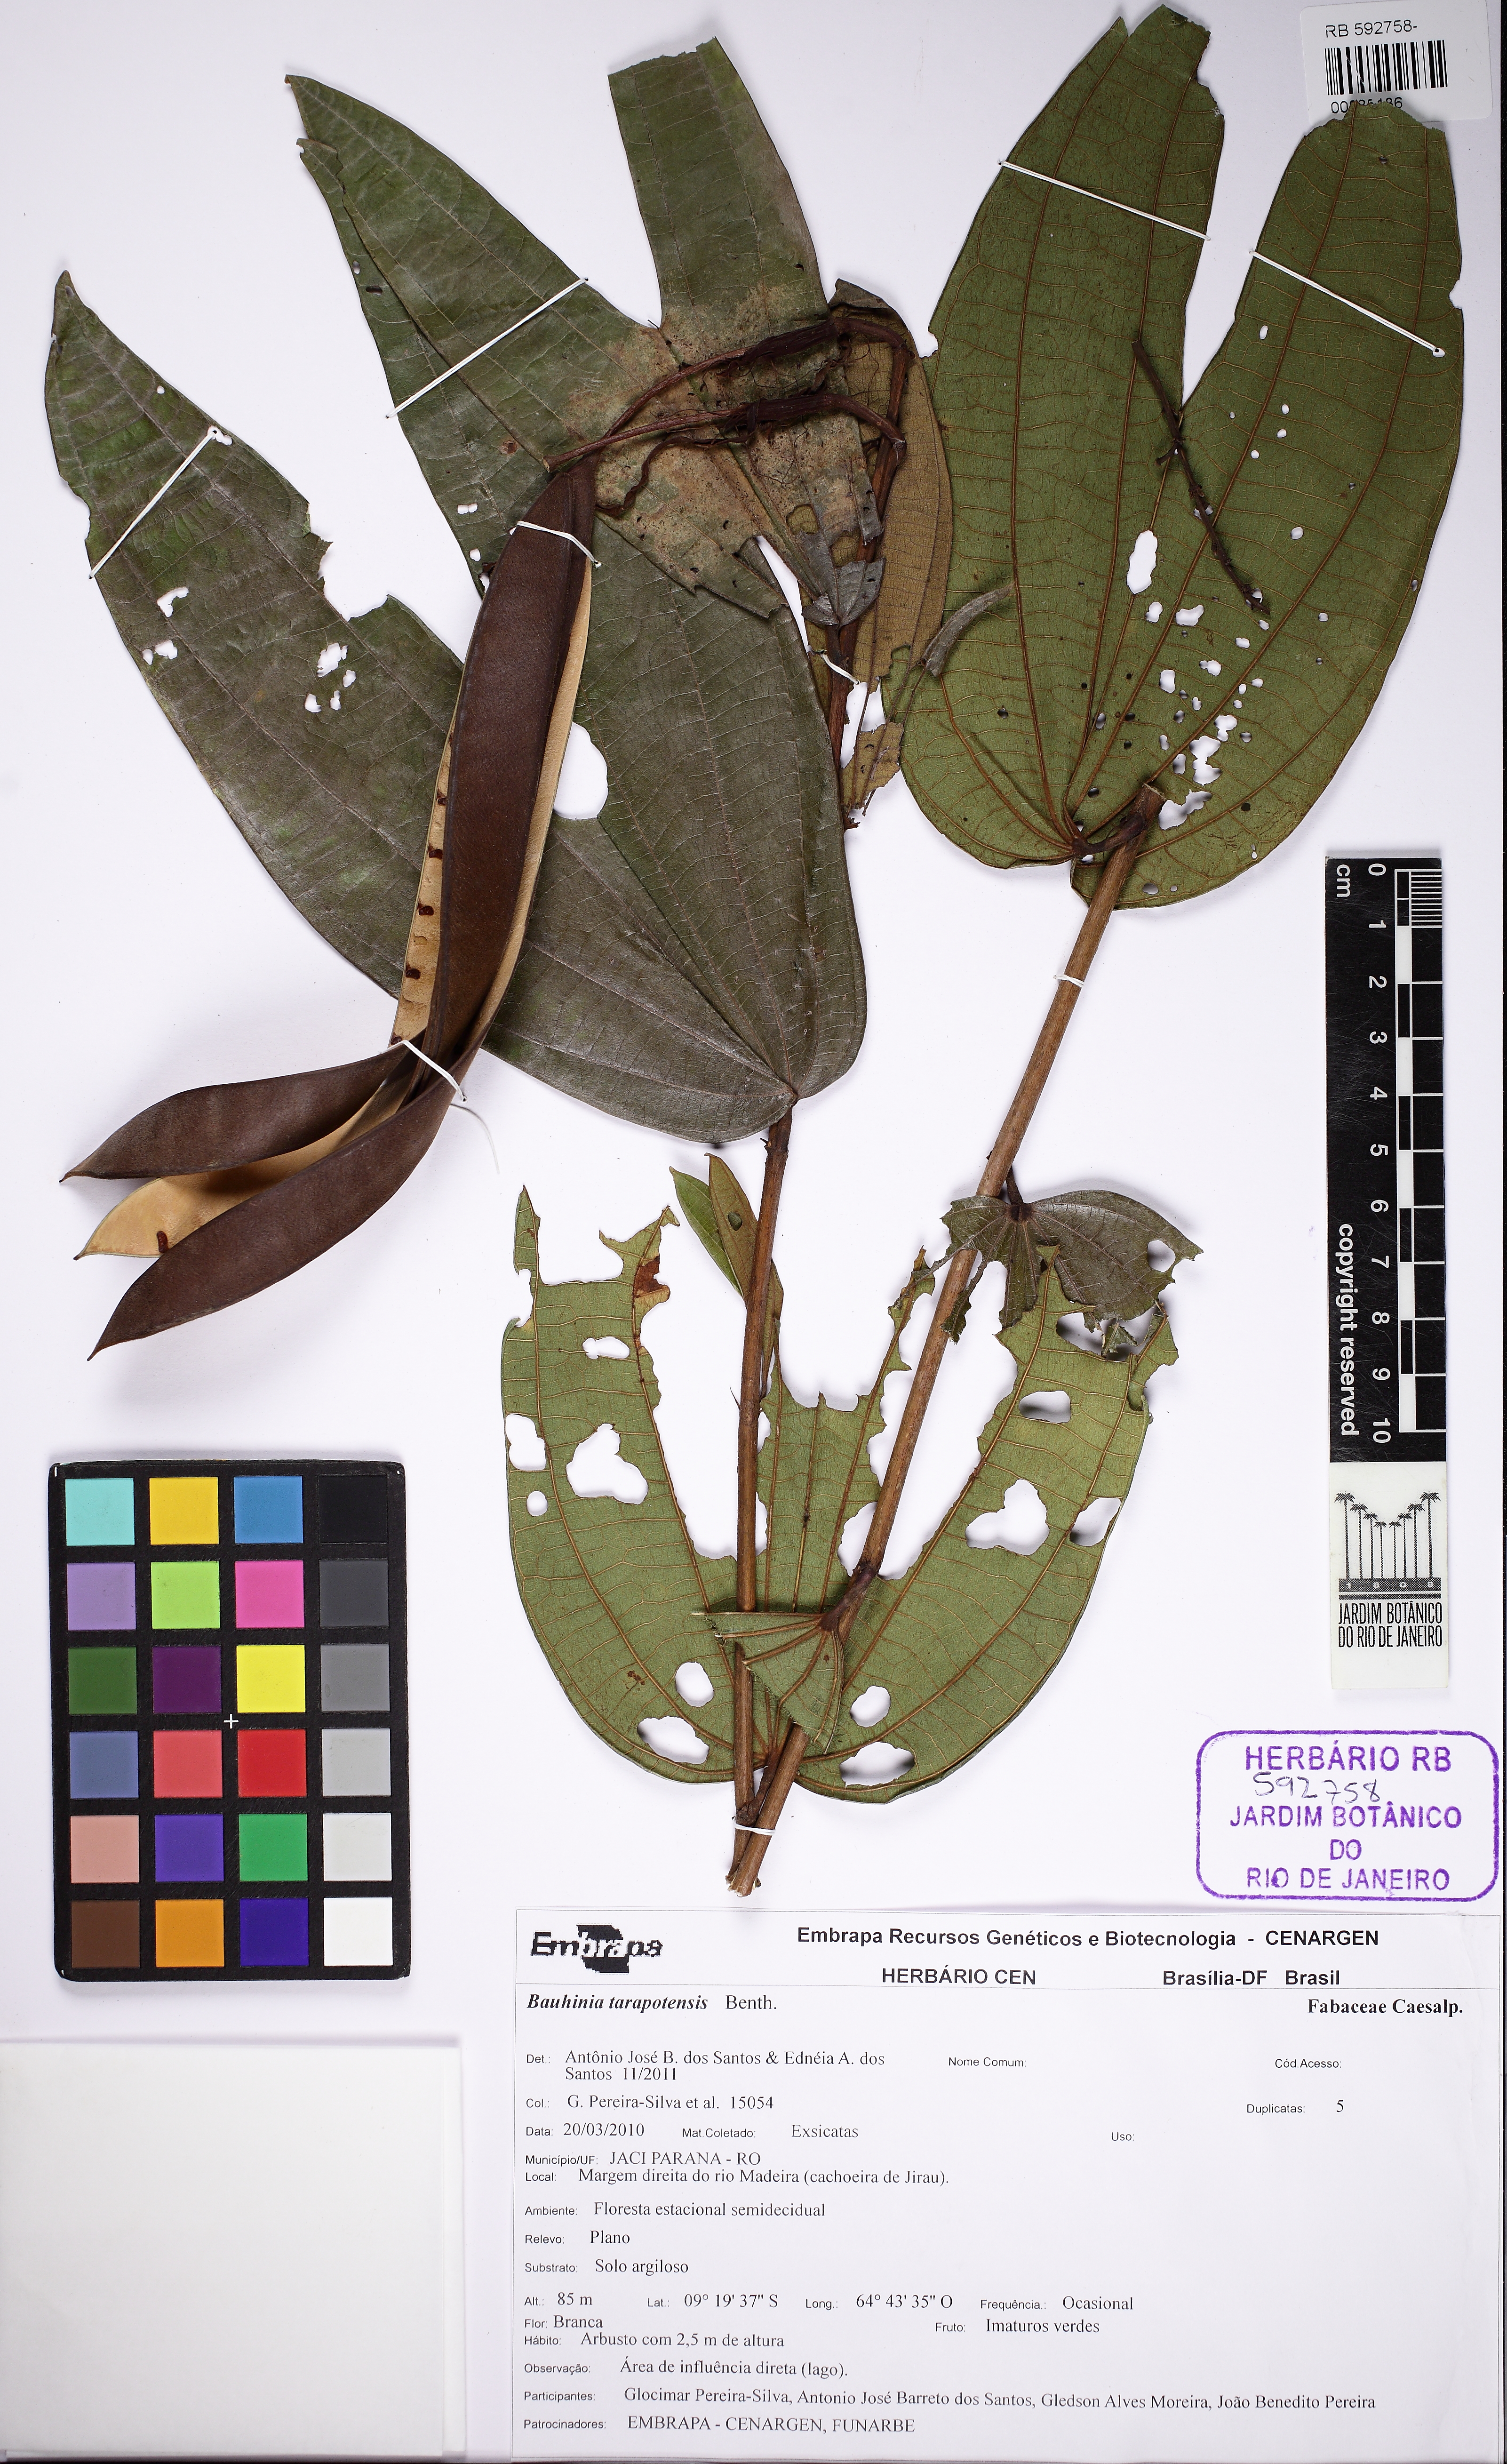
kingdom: Plantae
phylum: Tracheophyta
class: Magnoliopsida
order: Fabales
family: Fabaceae
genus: Bauhinia
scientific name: Bauhinia tarapotensis
